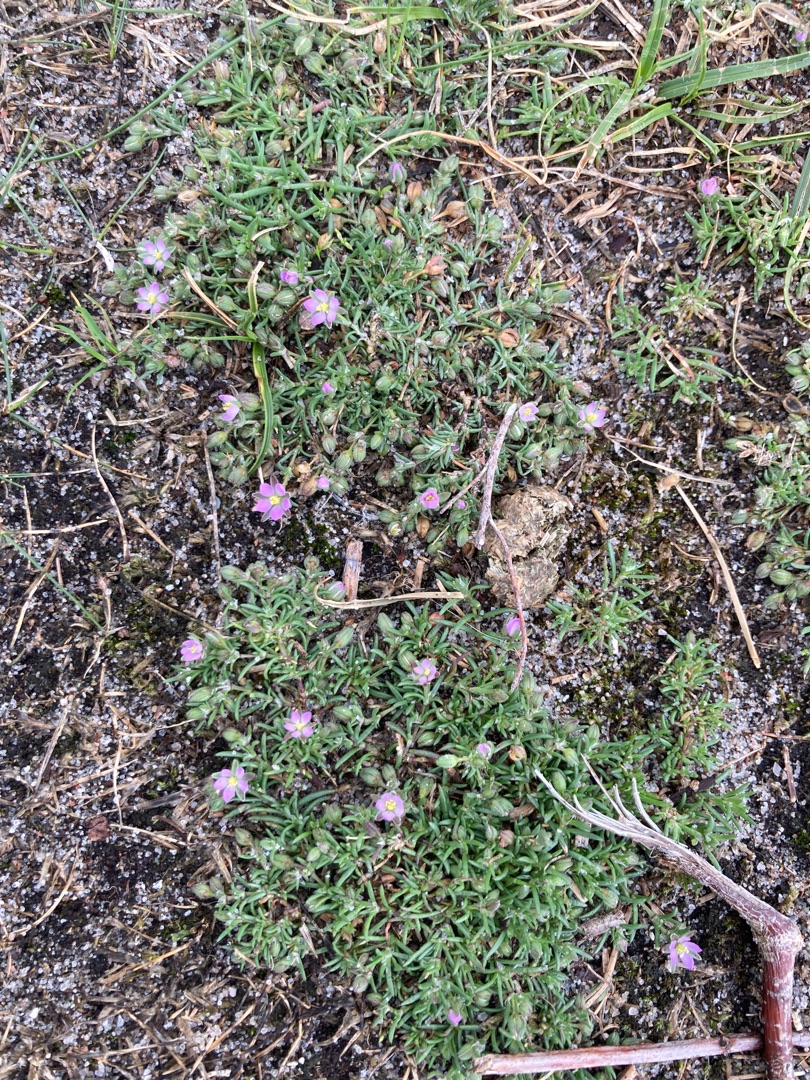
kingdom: Plantae
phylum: Tracheophyta
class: Magnoliopsida
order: Caryophyllales
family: Caryophyllaceae
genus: Spergularia
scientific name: Spergularia marina
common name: Kødet hindeknæ
